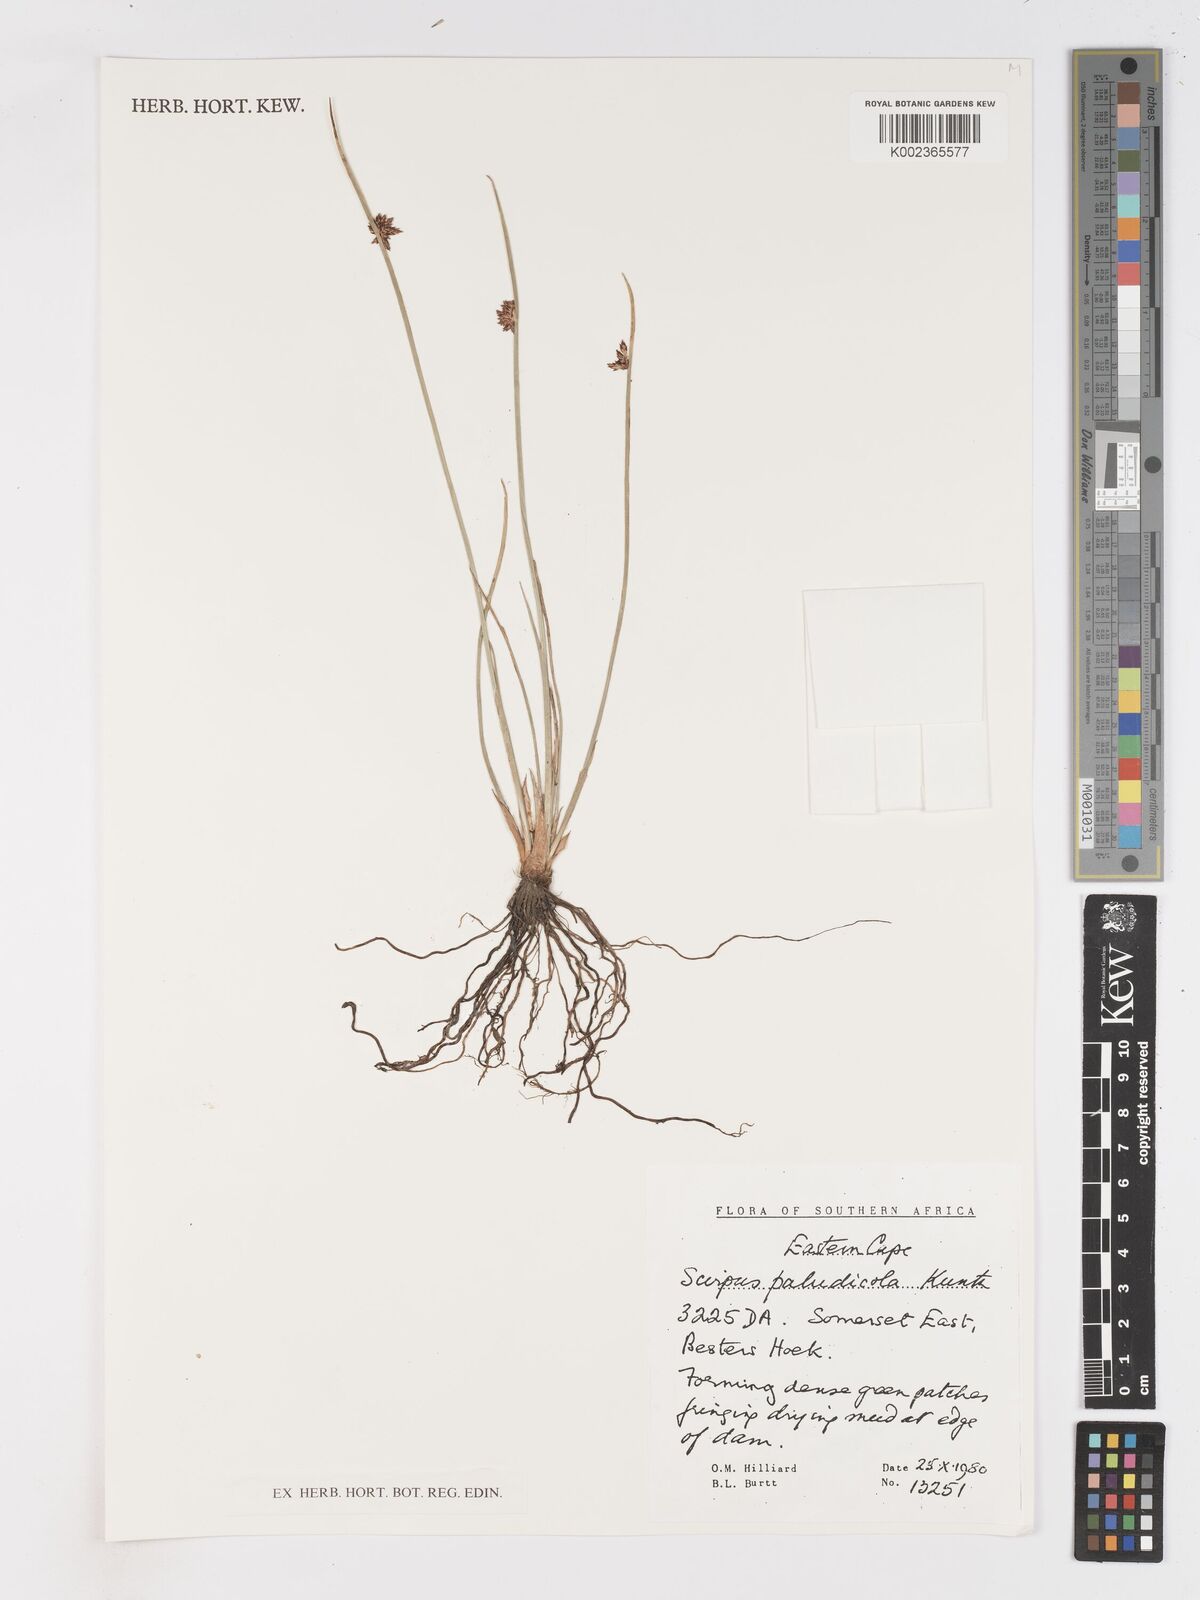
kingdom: Plantae
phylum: Tracheophyta
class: Liliopsida
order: Poales
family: Cyperaceae
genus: Schoenoplectiella
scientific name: Schoenoplectiella paludicola
